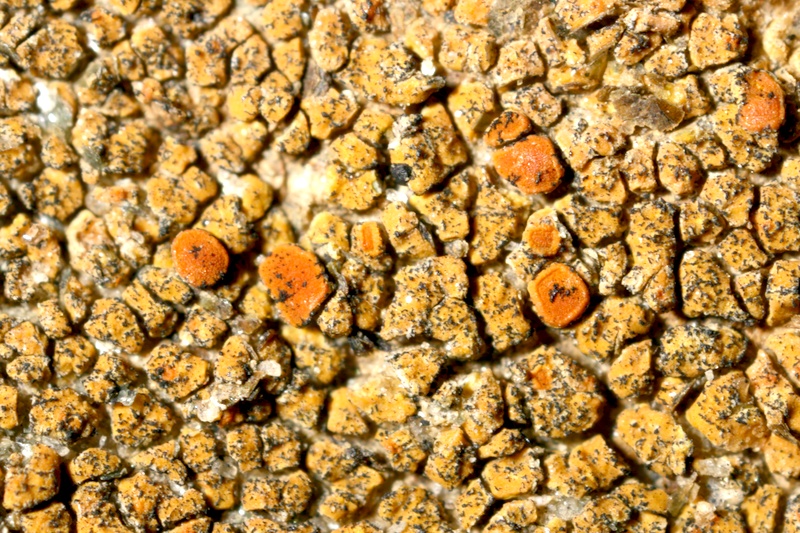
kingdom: Fungi
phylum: Ascomycota
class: Lecanoromycetes
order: Teloschistales
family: Teloschistaceae
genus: Caloplaca
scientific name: Caloplaca
